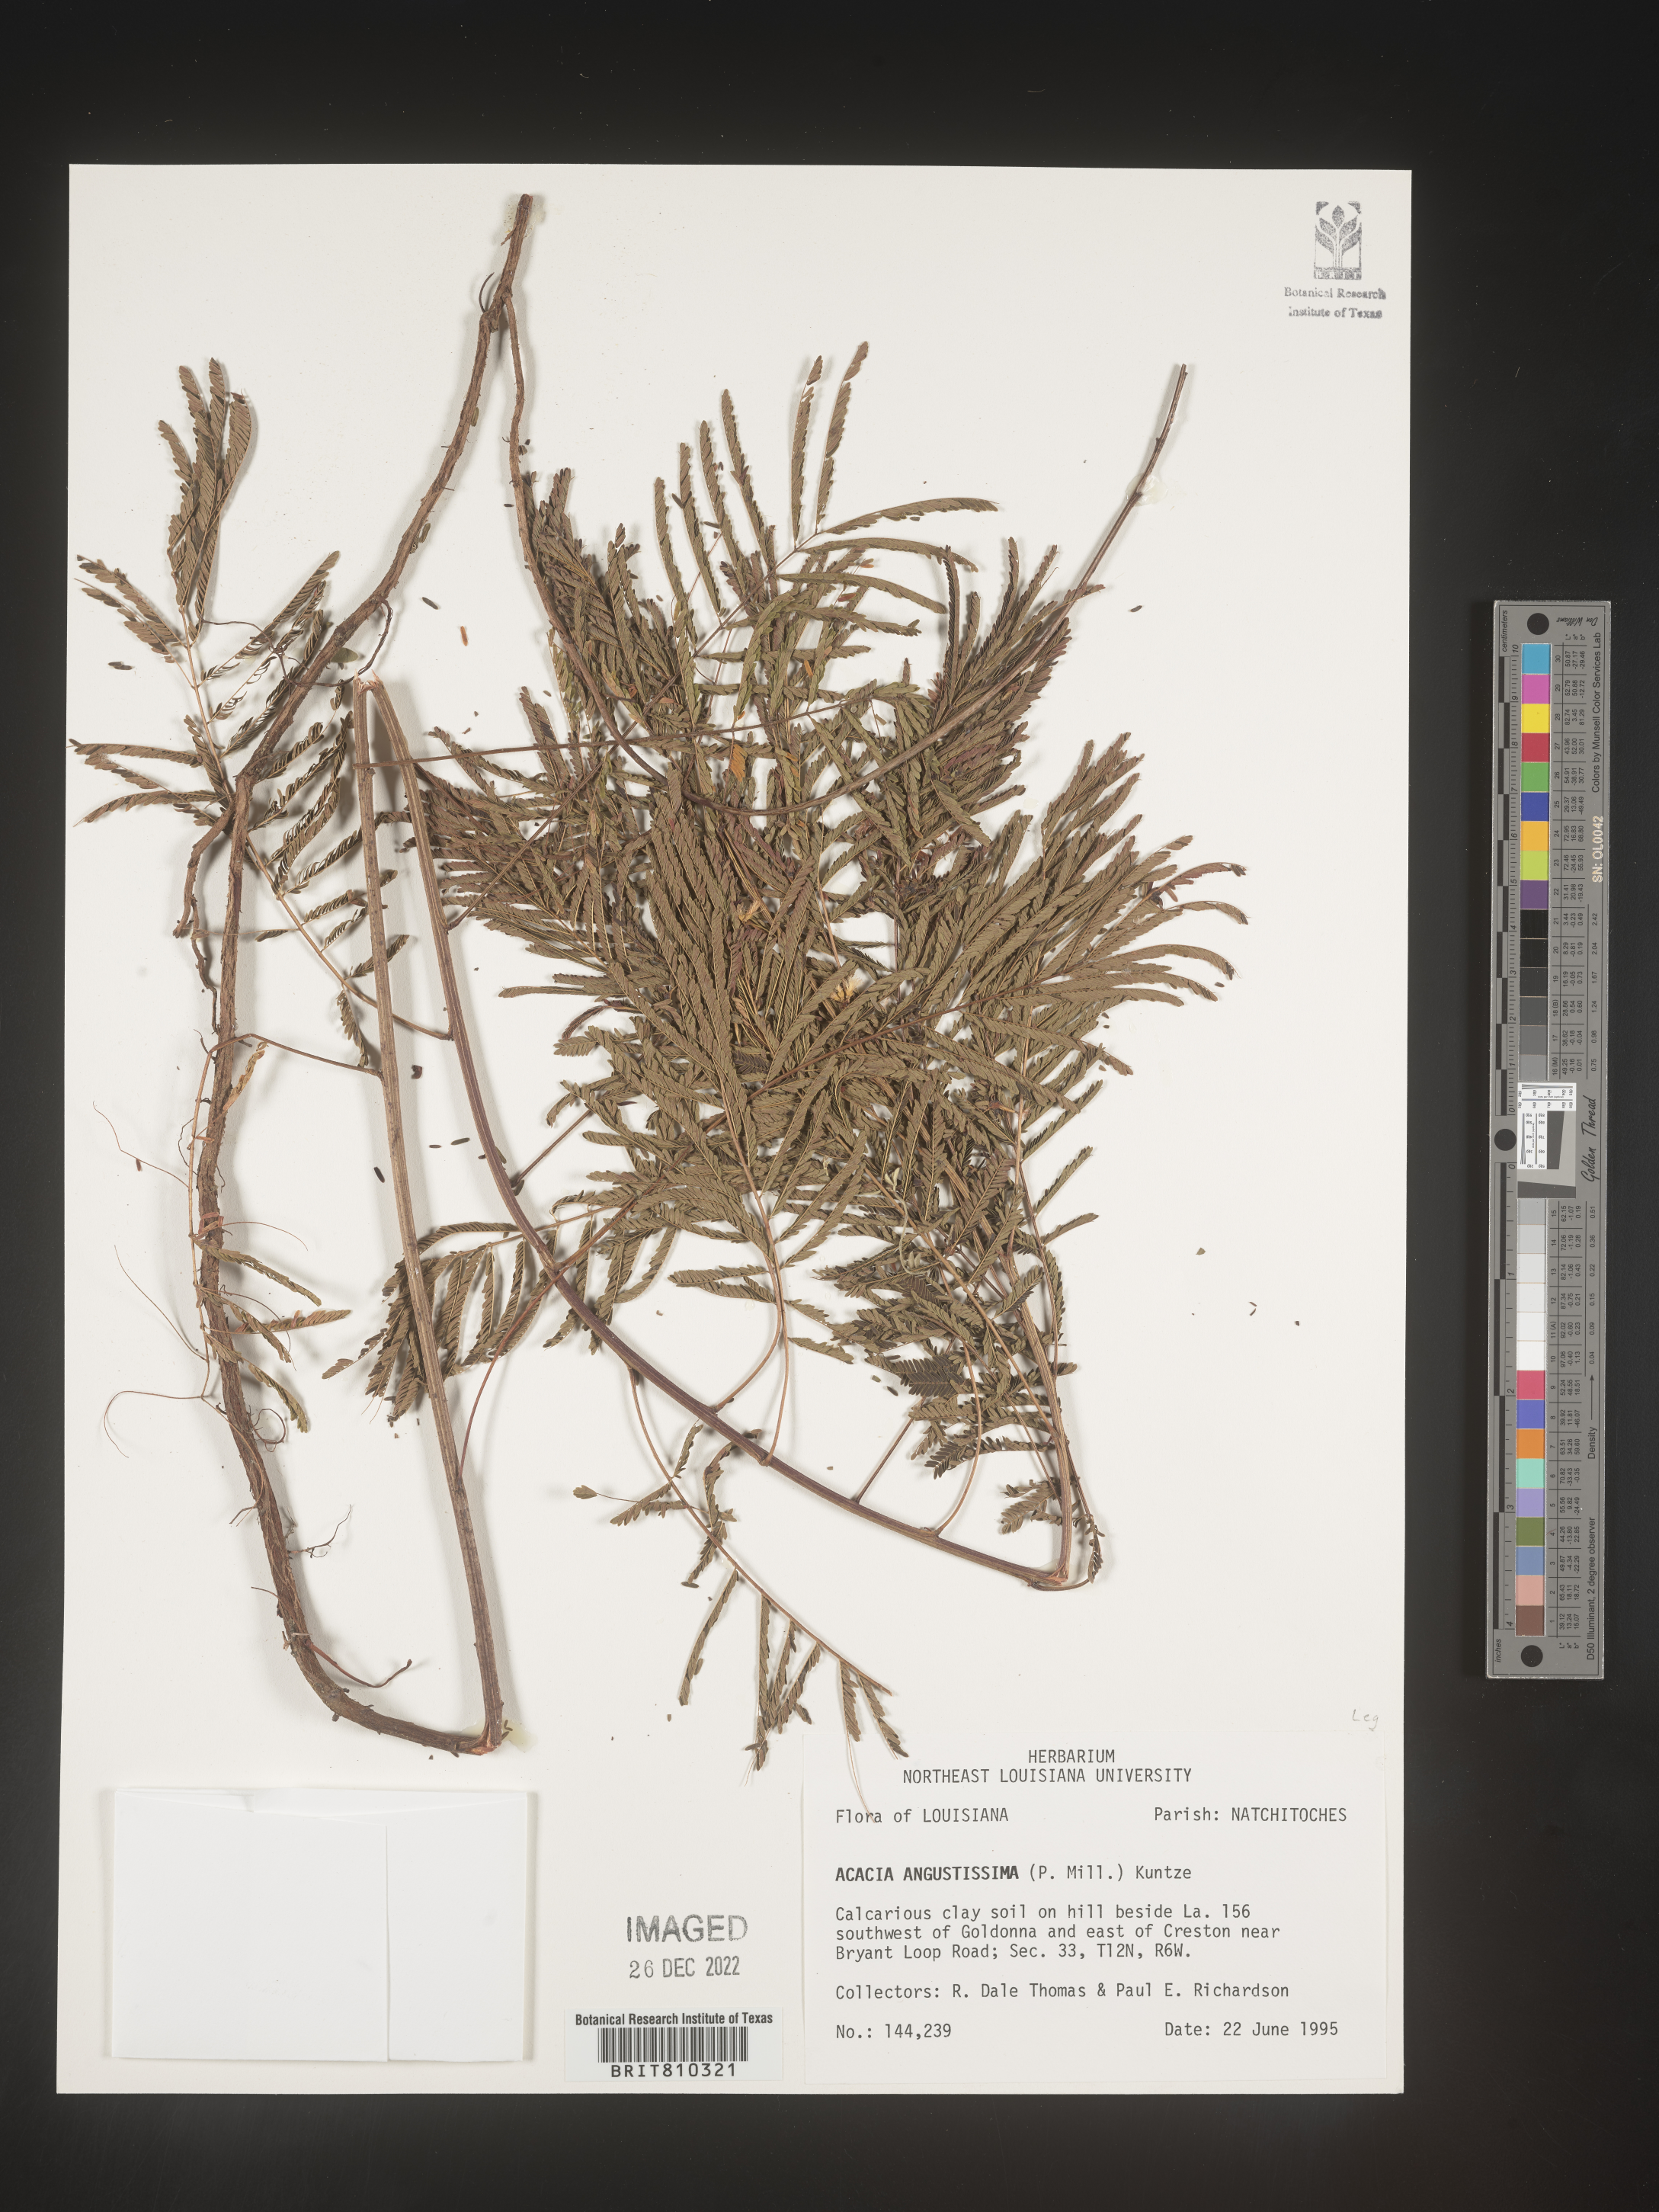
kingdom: Plantae
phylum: Tracheophyta
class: Magnoliopsida
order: Fabales
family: Fabaceae
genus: Acaciella
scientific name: Acaciella angustissima
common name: Prairie acacia
